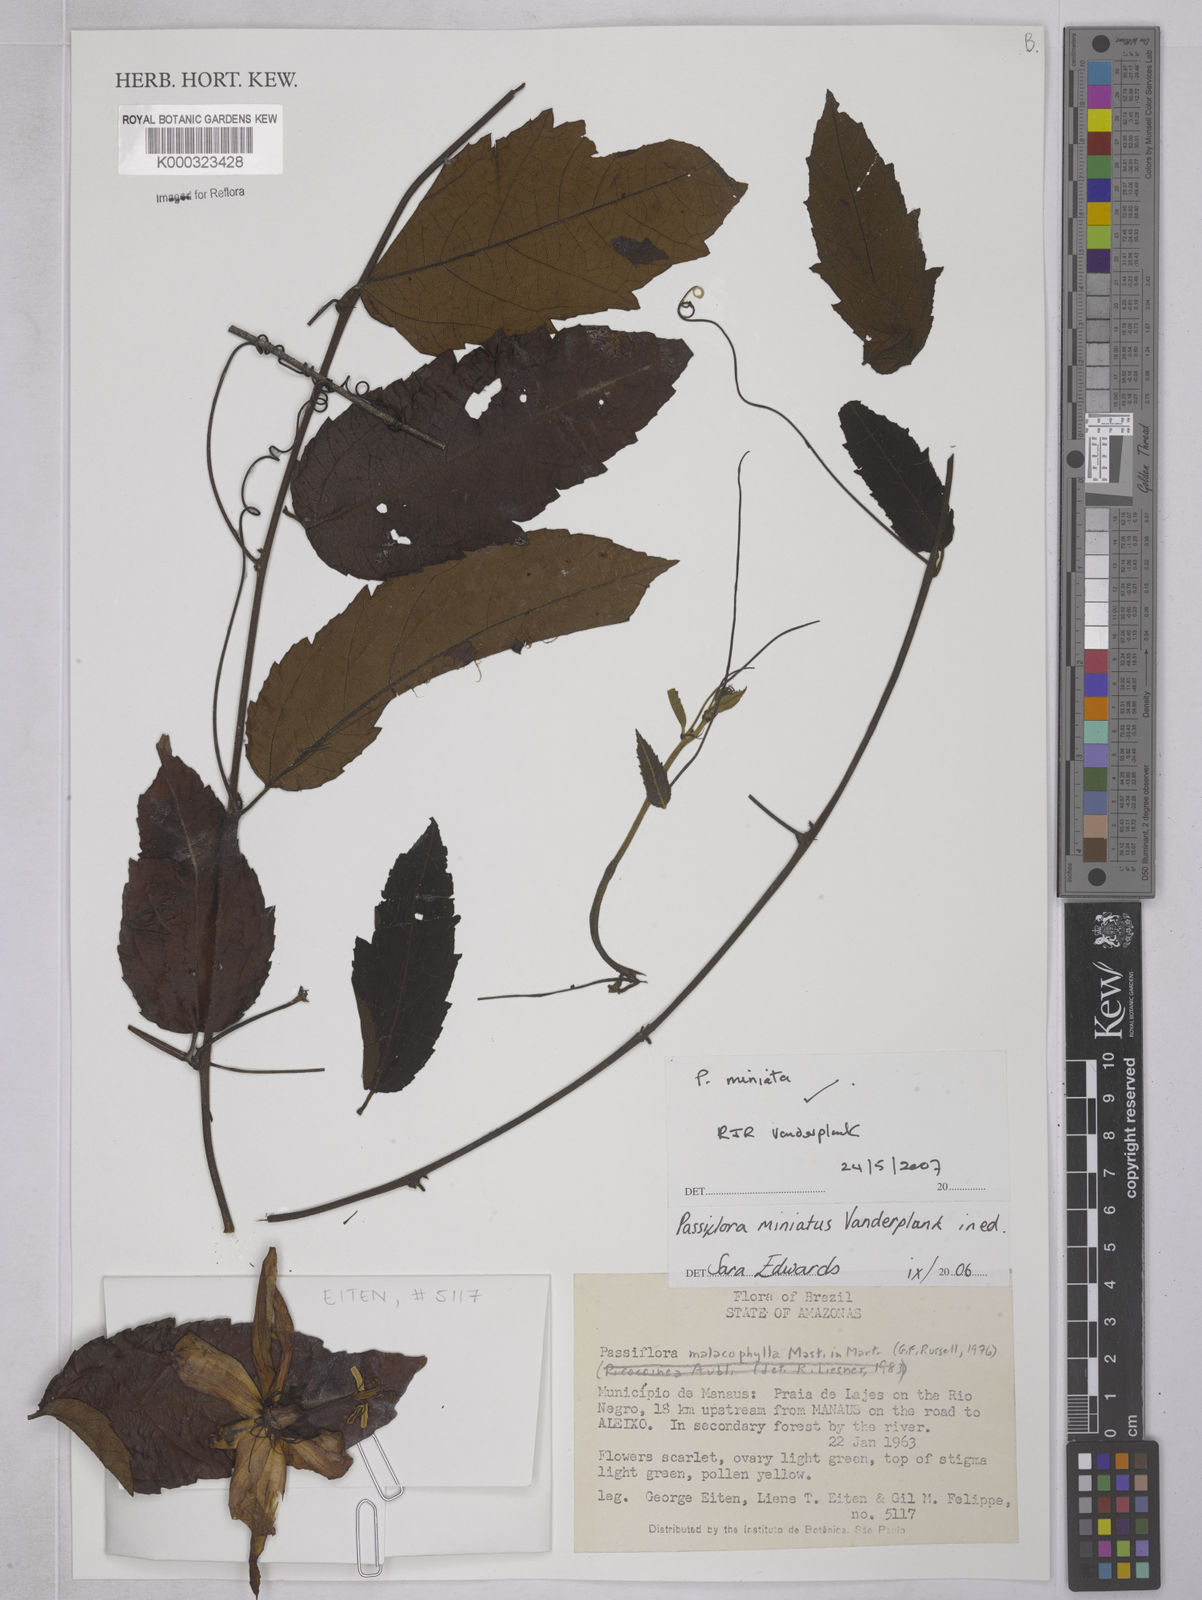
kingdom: Plantae
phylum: Tracheophyta
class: Magnoliopsida
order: Malpighiales
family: Passifloraceae
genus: Passiflora
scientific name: Passiflora miniata
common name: Red granadilla
